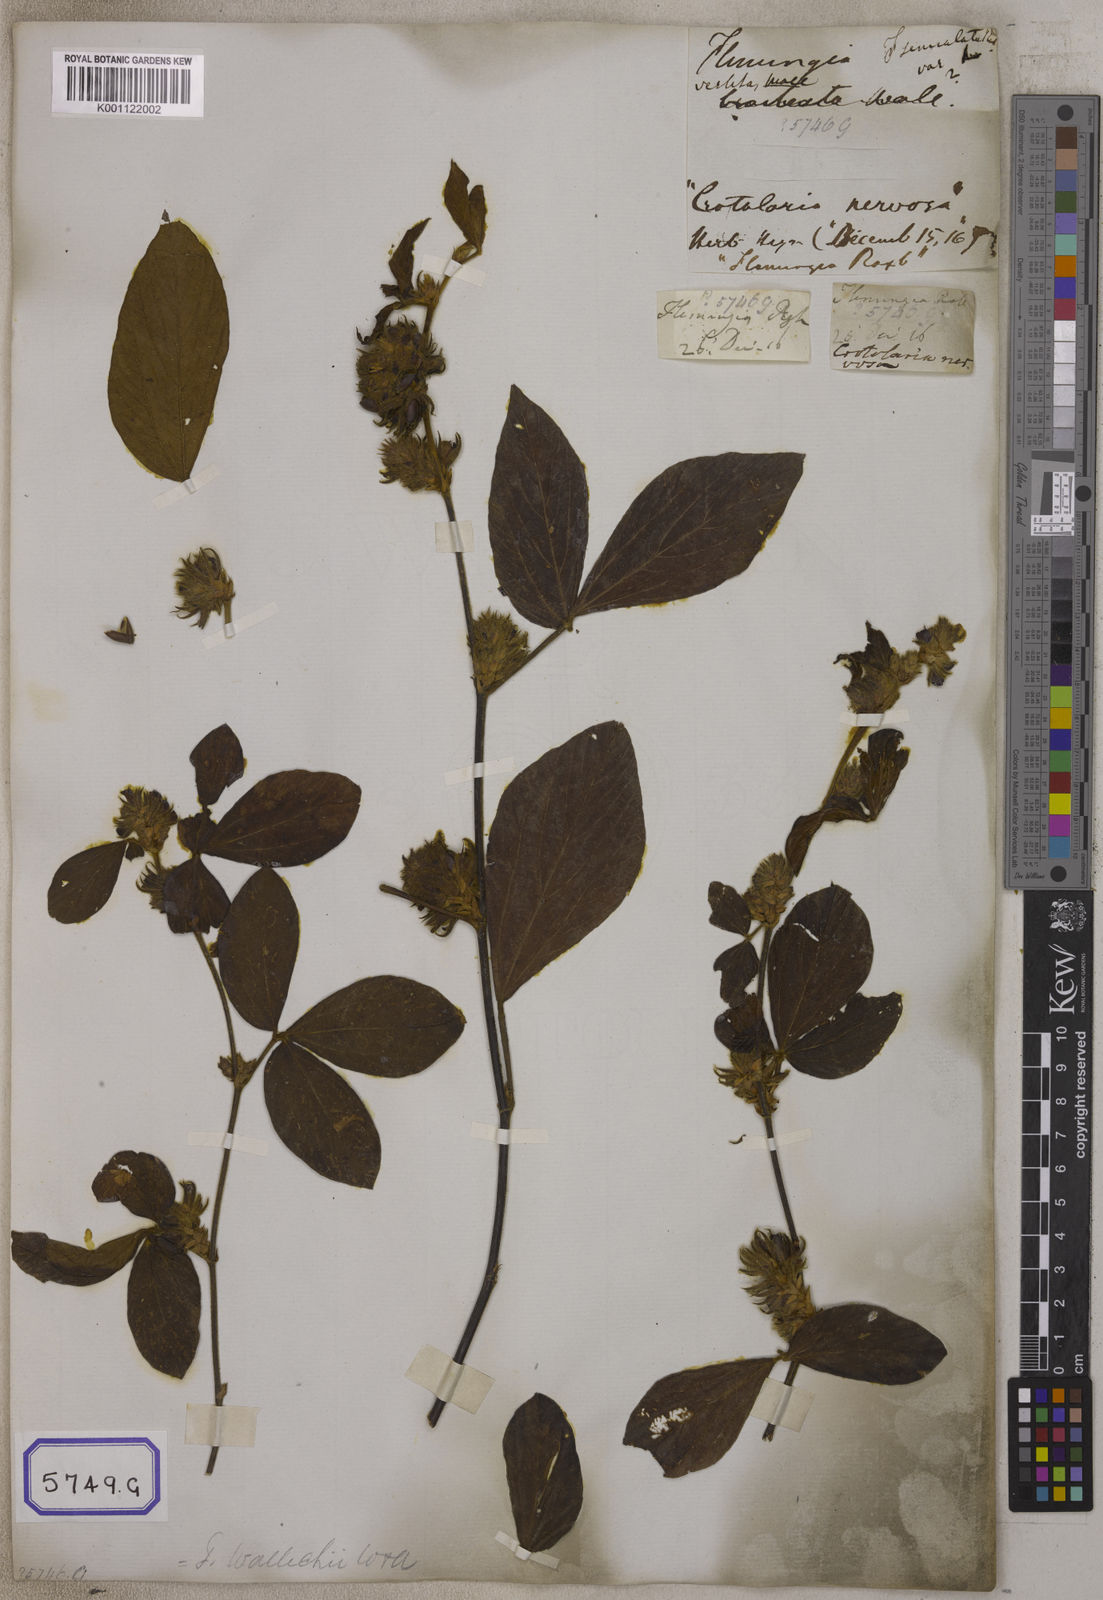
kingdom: Plantae
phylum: Tracheophyta
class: Magnoliopsida
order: Fabales
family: Fabaceae
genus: Flemingia
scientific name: Flemingia
